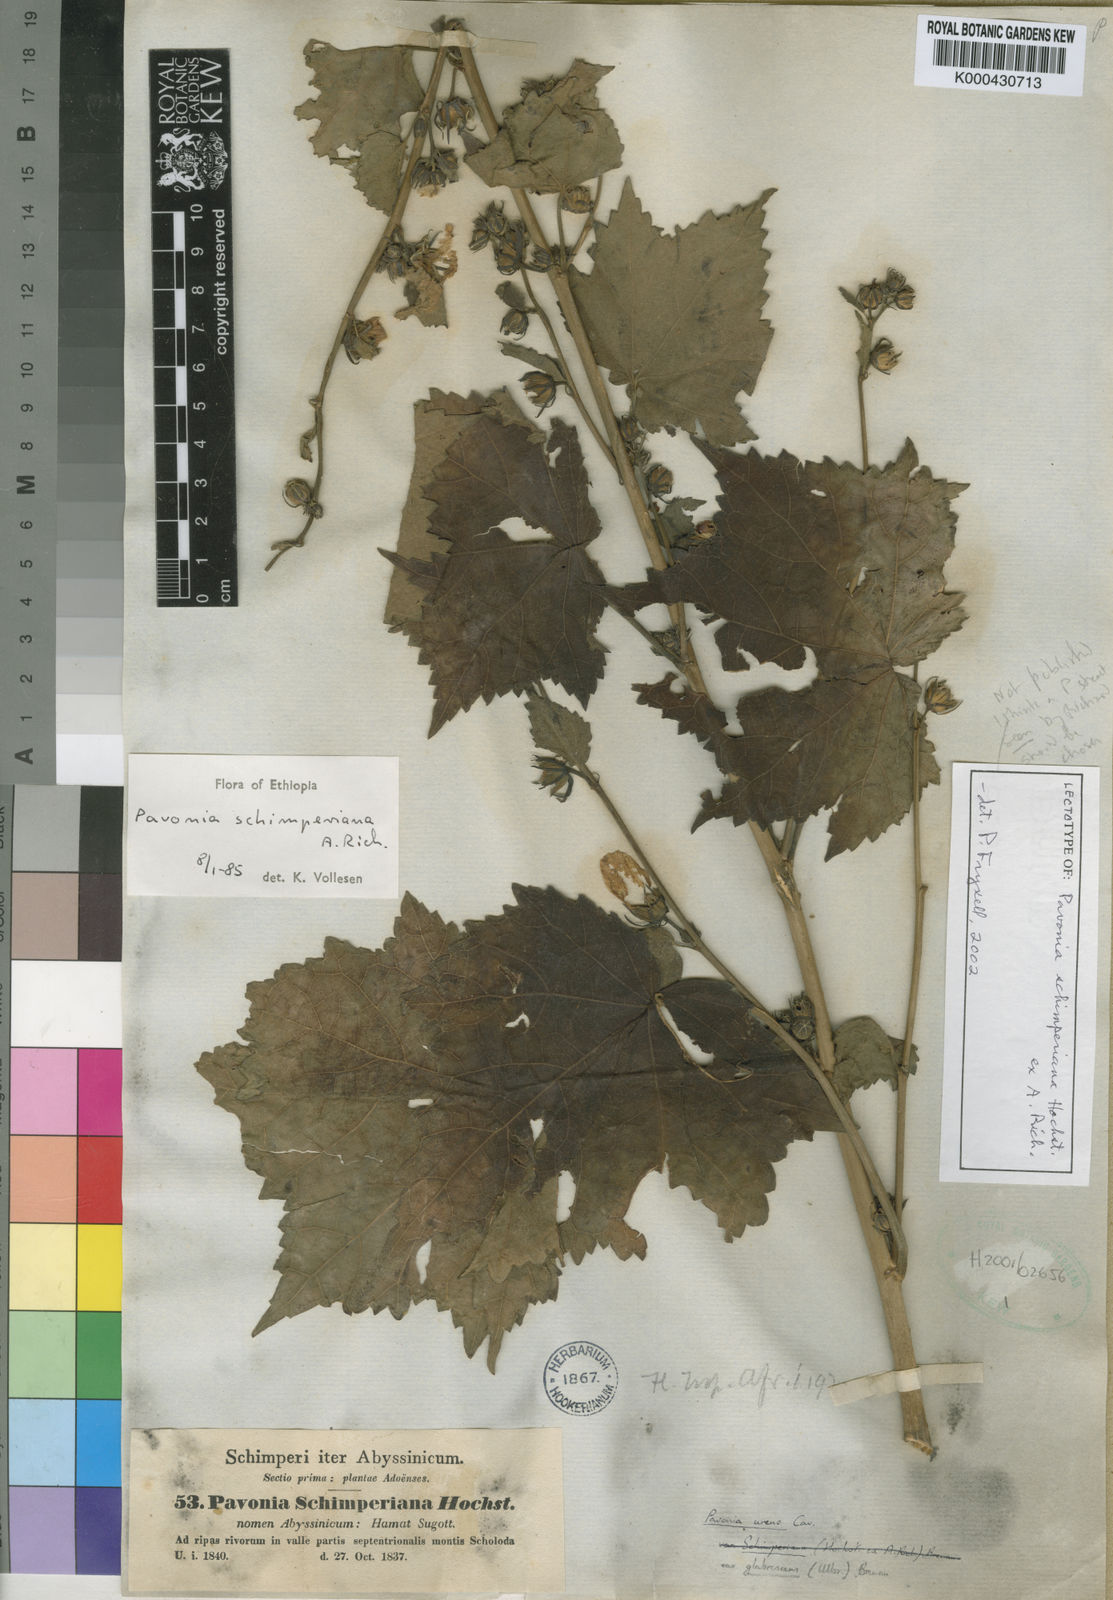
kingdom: Plantae
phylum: Tracheophyta
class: Magnoliopsida
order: Malvales
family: Malvaceae
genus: Pavonia
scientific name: Pavonia schimperiana
